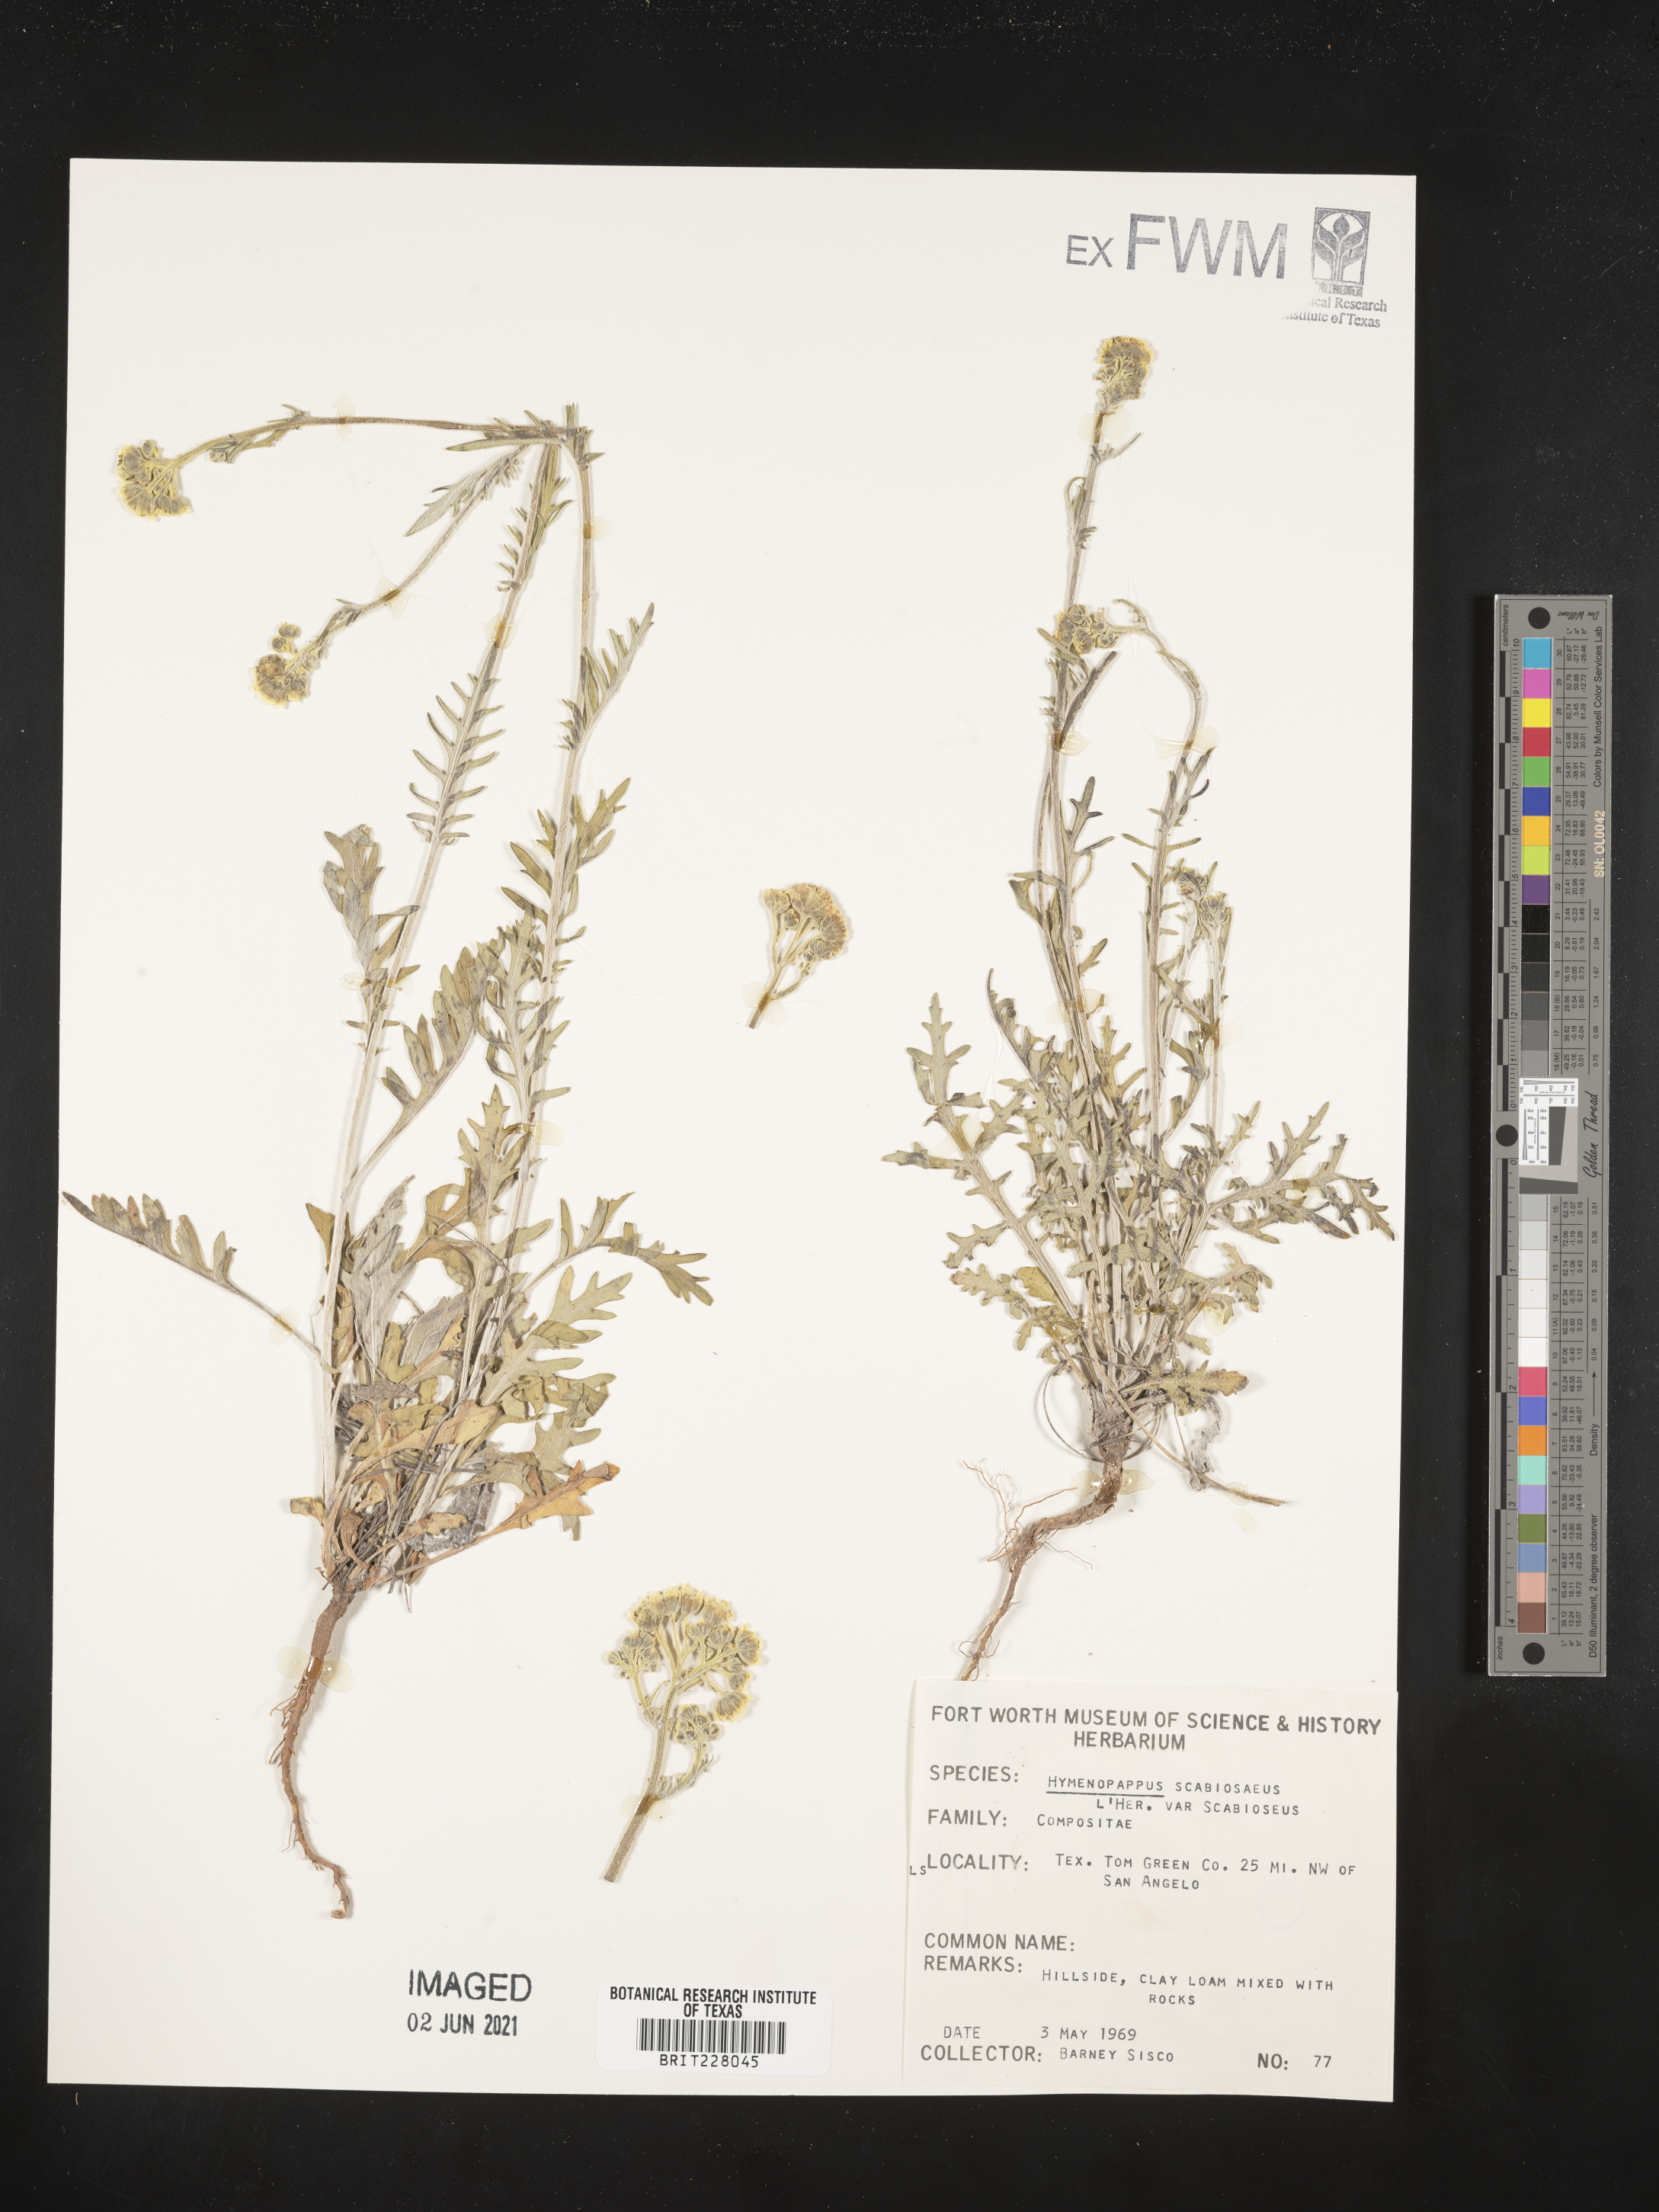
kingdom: Plantae
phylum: Tracheophyta
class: Magnoliopsida
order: Asterales
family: Asteraceae
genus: Hymenopappus
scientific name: Hymenopappus scabiosaeus
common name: Carolina woollywhite
